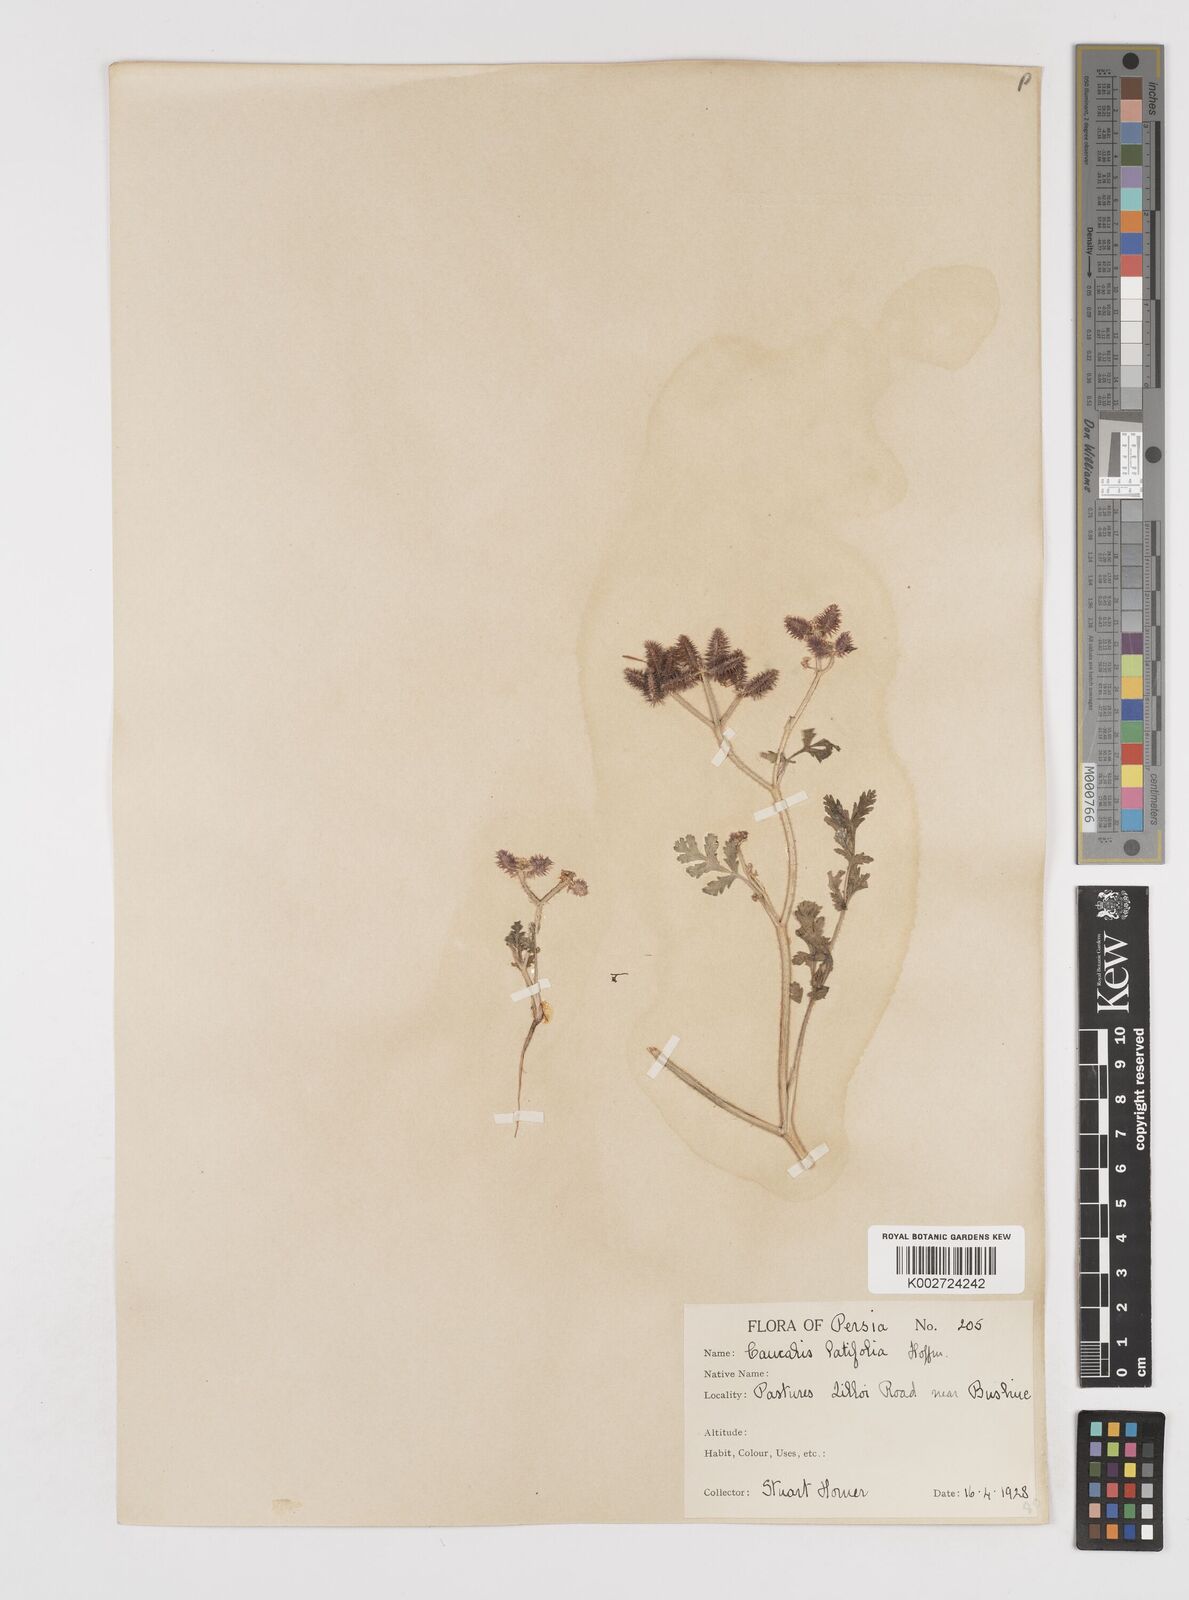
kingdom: Plantae
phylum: Tracheophyta
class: Magnoliopsida
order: Apiales
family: Apiaceae
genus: Turgenia
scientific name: Turgenia latifolia
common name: Greater bur-parsley
